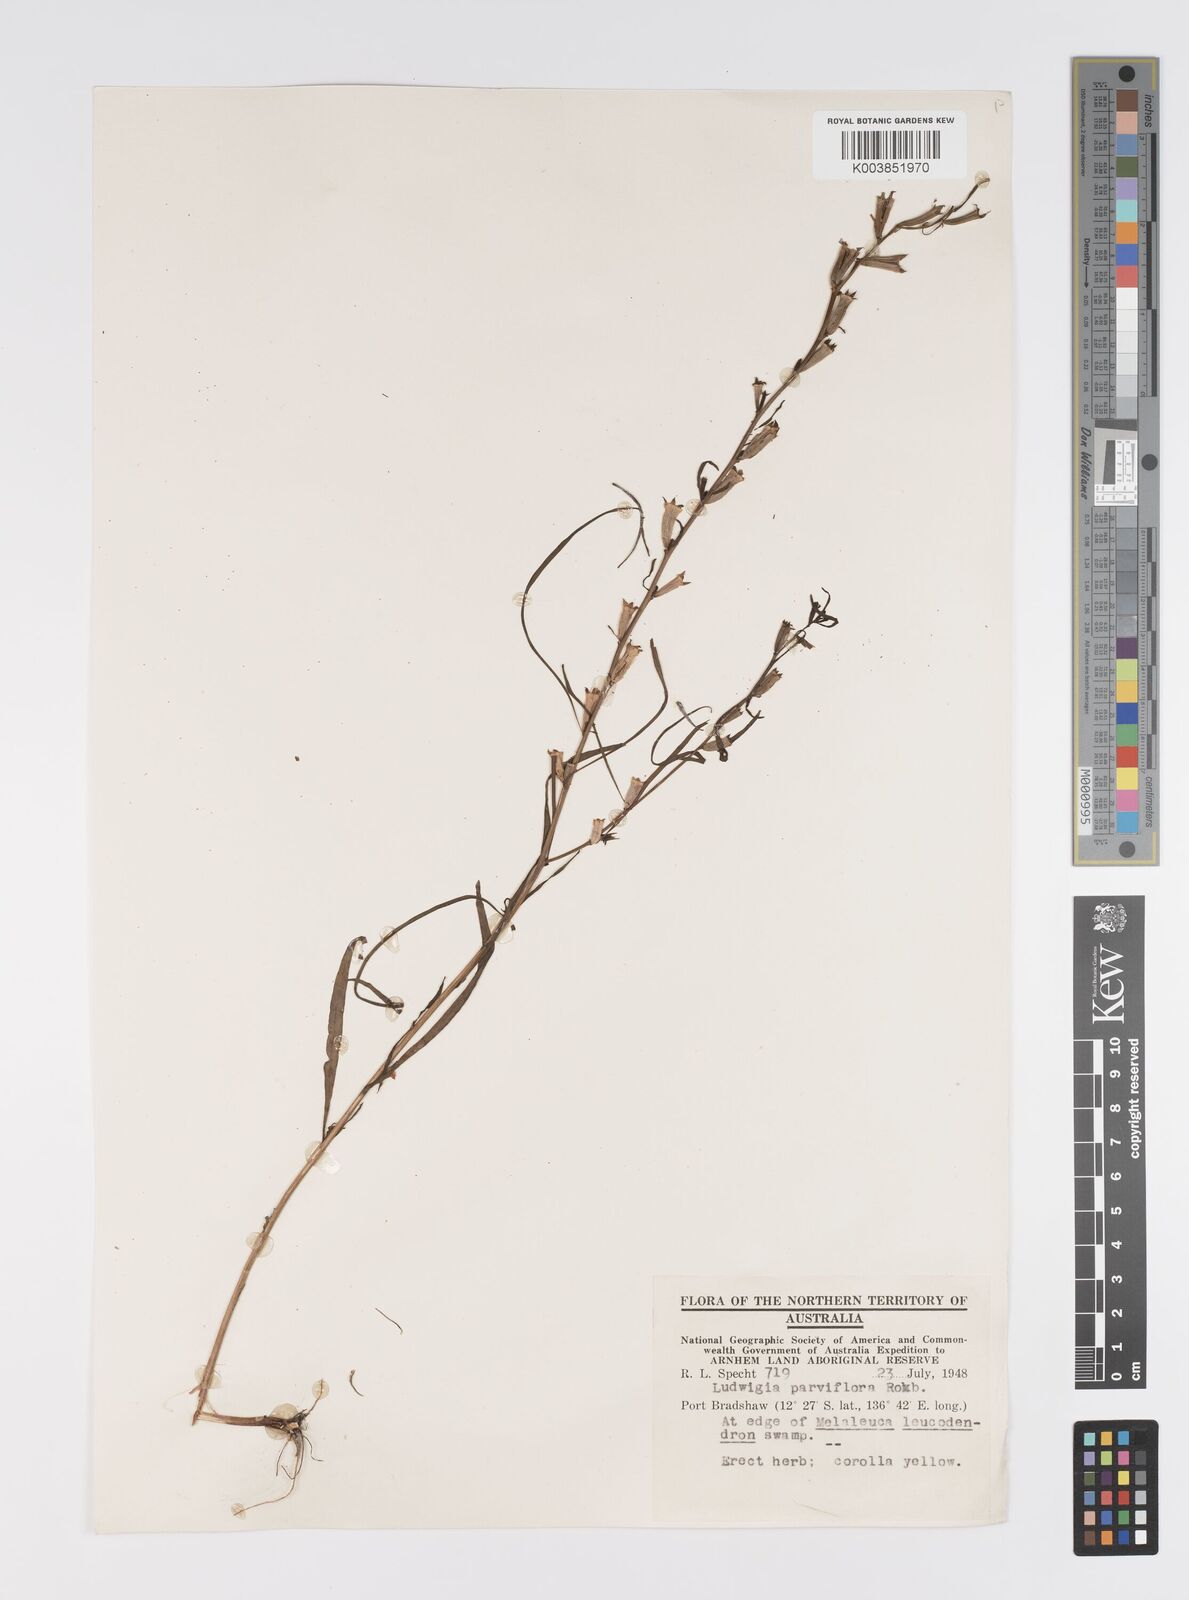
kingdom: Plantae
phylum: Tracheophyta
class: Magnoliopsida
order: Myrtales
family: Onagraceae
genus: Ludwigia
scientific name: Ludwigia perennis
